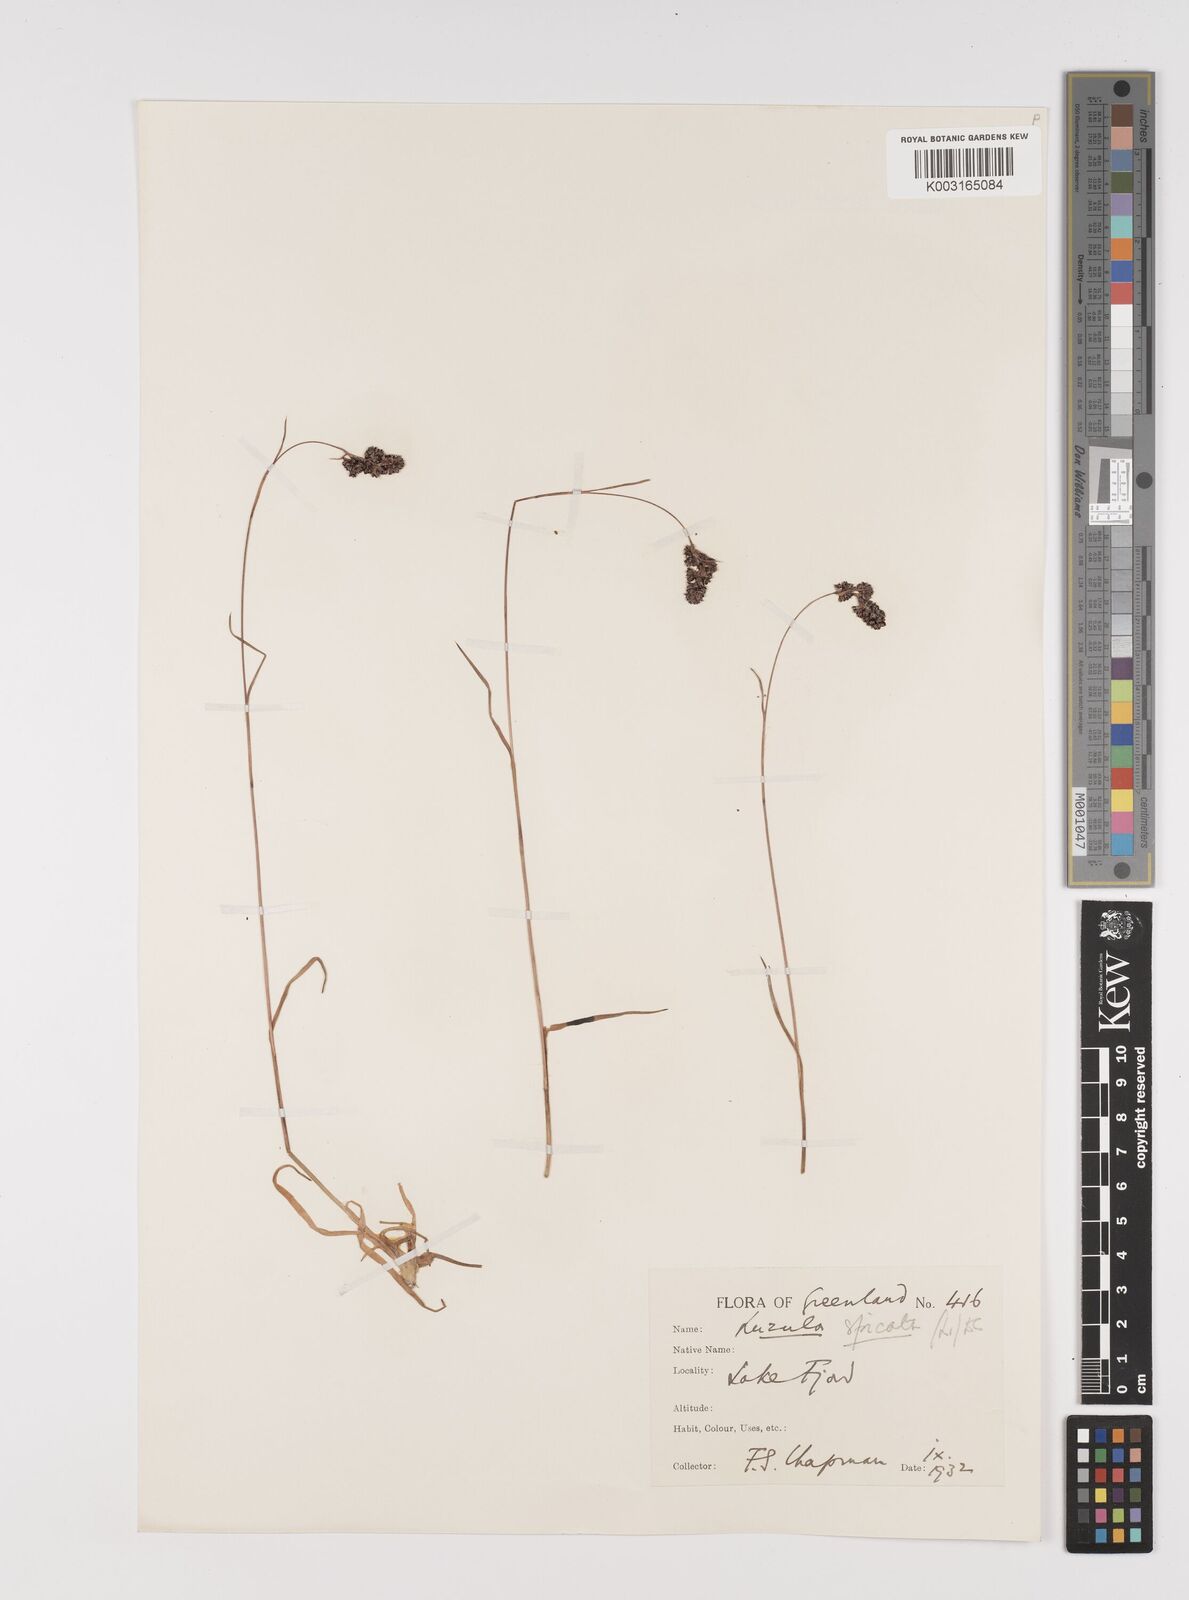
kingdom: Plantae
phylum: Tracheophyta
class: Liliopsida
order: Poales
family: Juncaceae
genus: Luzula
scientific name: Luzula spicata
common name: Spiked wood-rush
